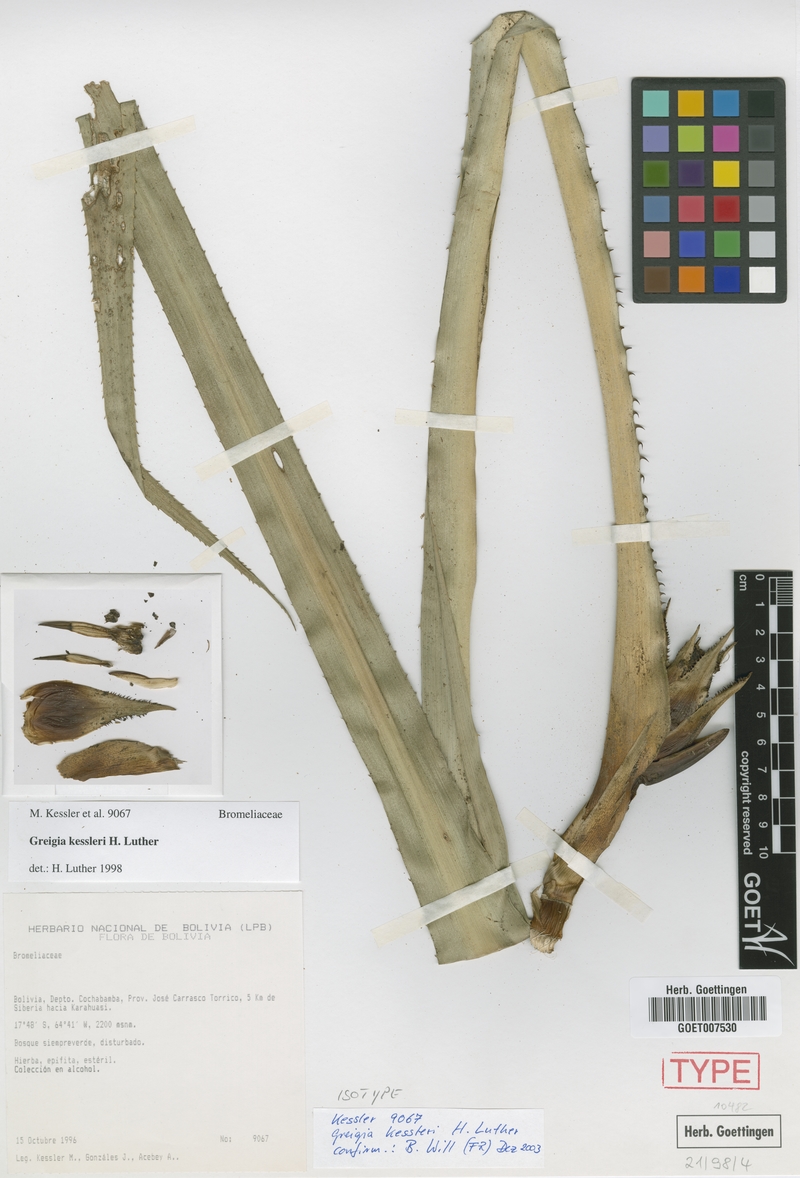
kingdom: Plantae
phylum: Tracheophyta
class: Liliopsida
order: Poales
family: Bromeliaceae
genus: Greigia
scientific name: Greigia kessleri
